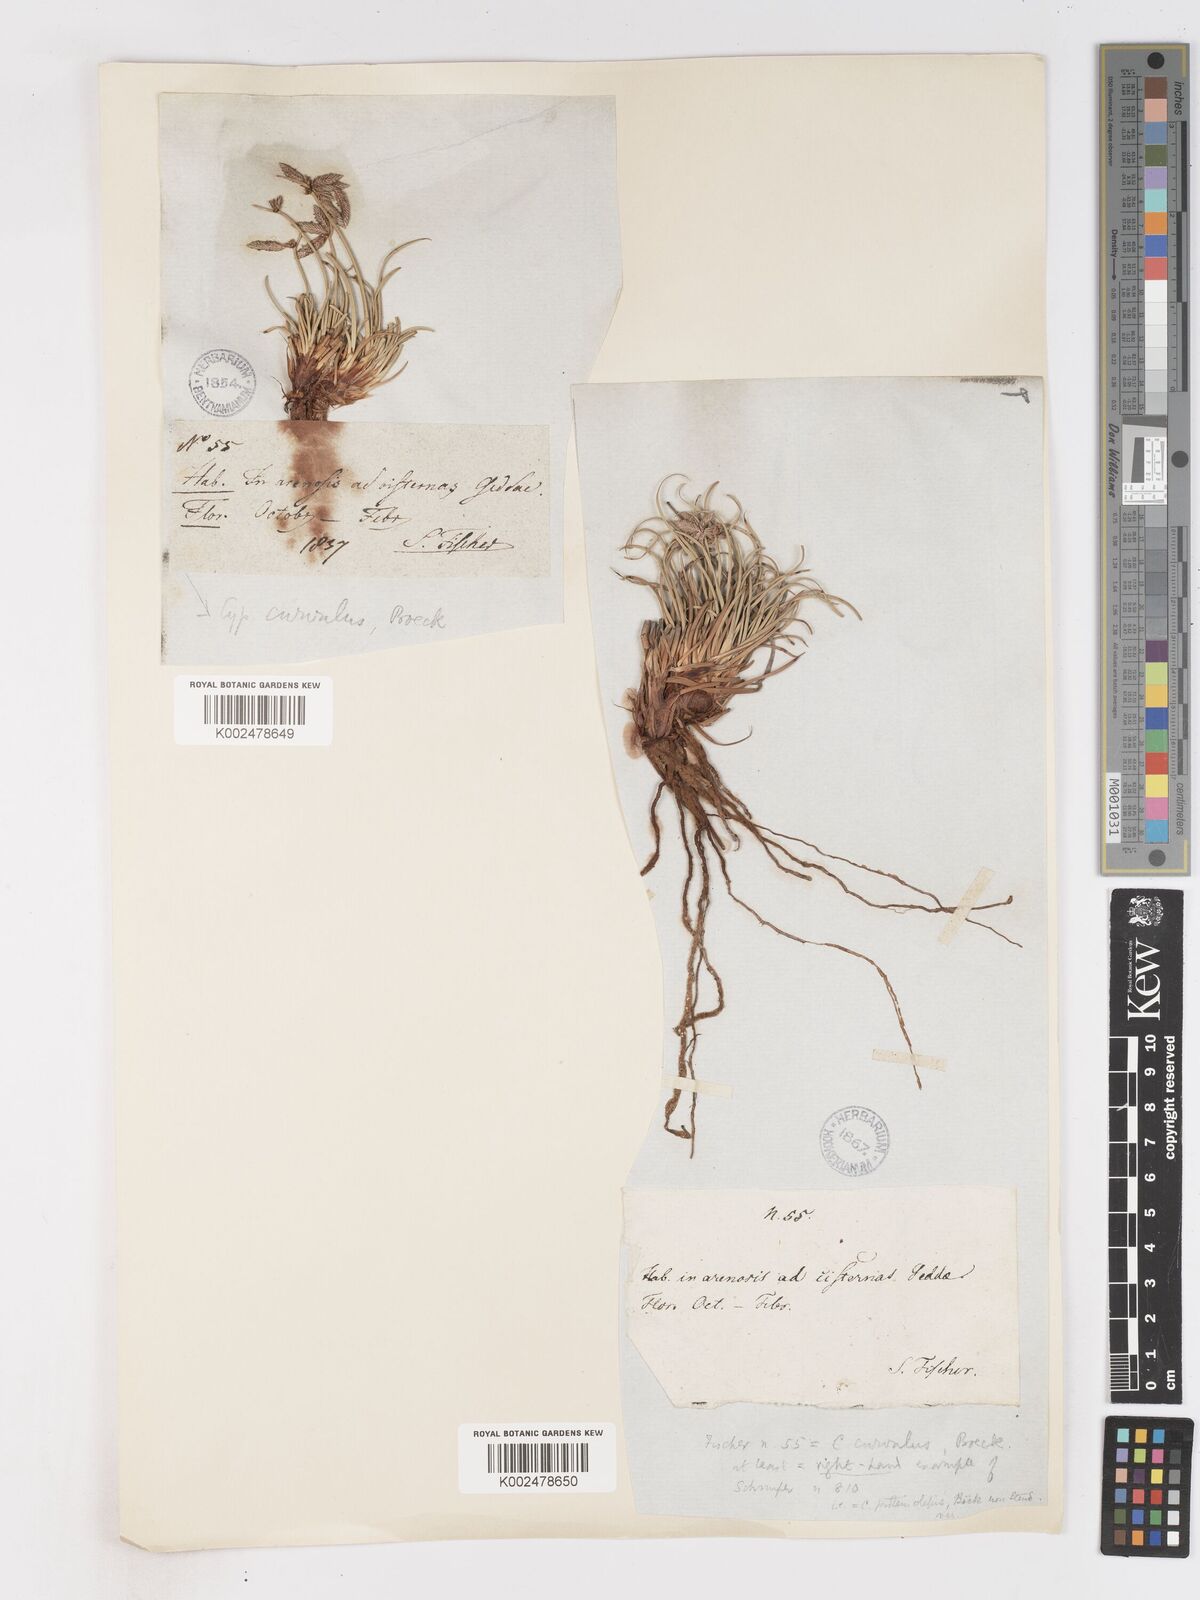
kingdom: Plantae
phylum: Tracheophyta
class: Liliopsida
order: Poales
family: Cyperaceae
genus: Cyperus
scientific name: Cyperus conglomeratus
